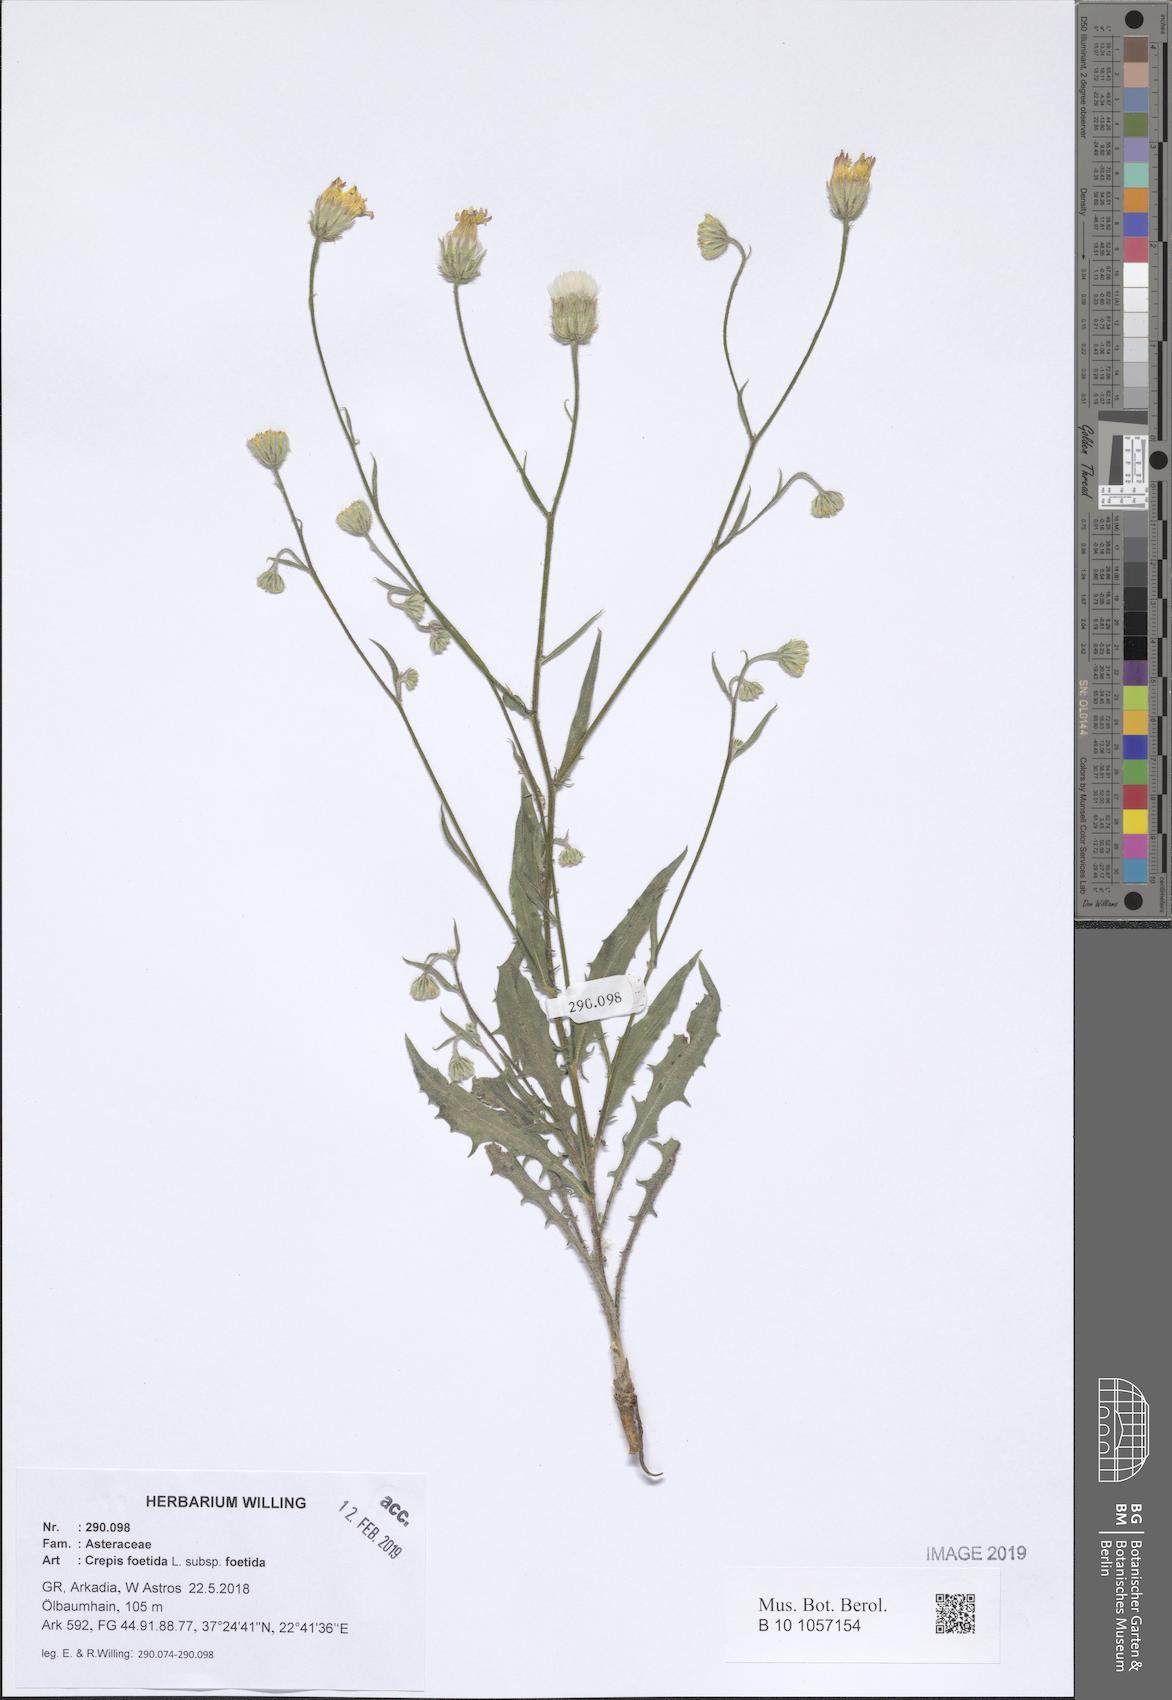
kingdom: Plantae
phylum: Tracheophyta
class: Magnoliopsida
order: Asterales
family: Asteraceae
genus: Crepis
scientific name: Crepis foetida
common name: Stinking hawk's-beard
